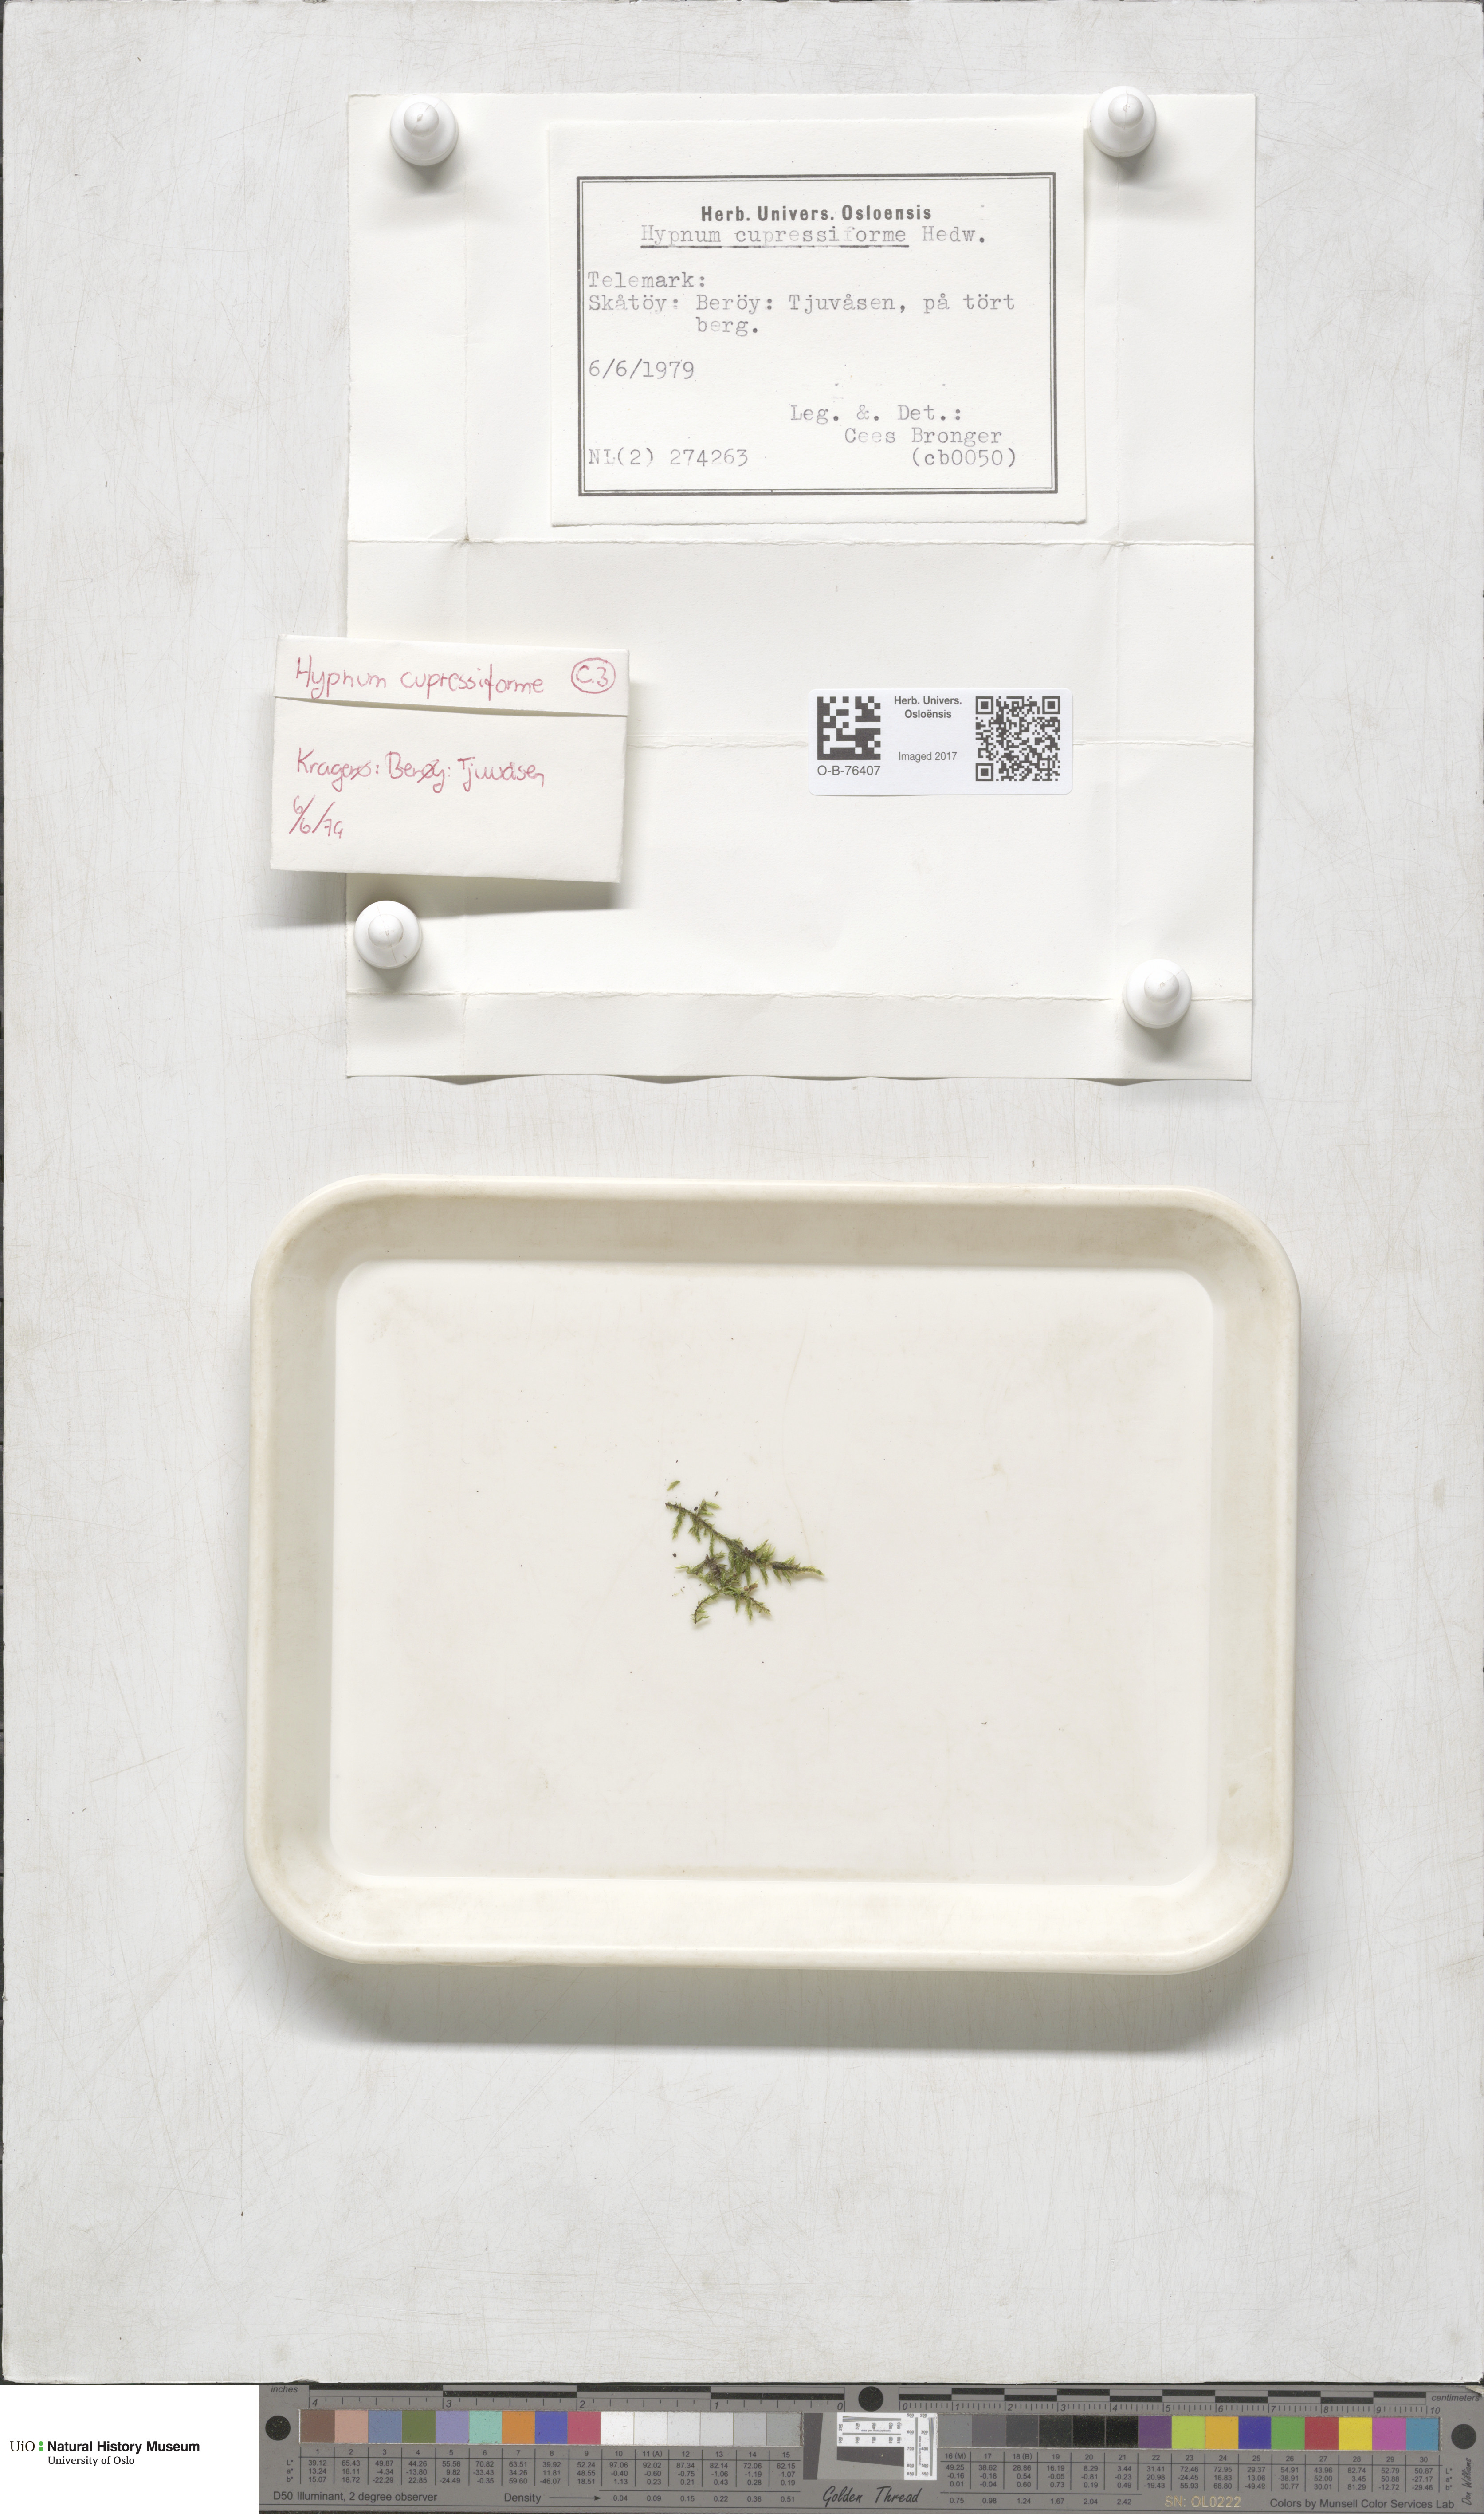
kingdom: Plantae
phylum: Bryophyta
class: Bryopsida
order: Hypnales
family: Hypnaceae
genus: Hypnum
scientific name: Hypnum cupressiforme
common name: Cypress-leaved plait-moss
